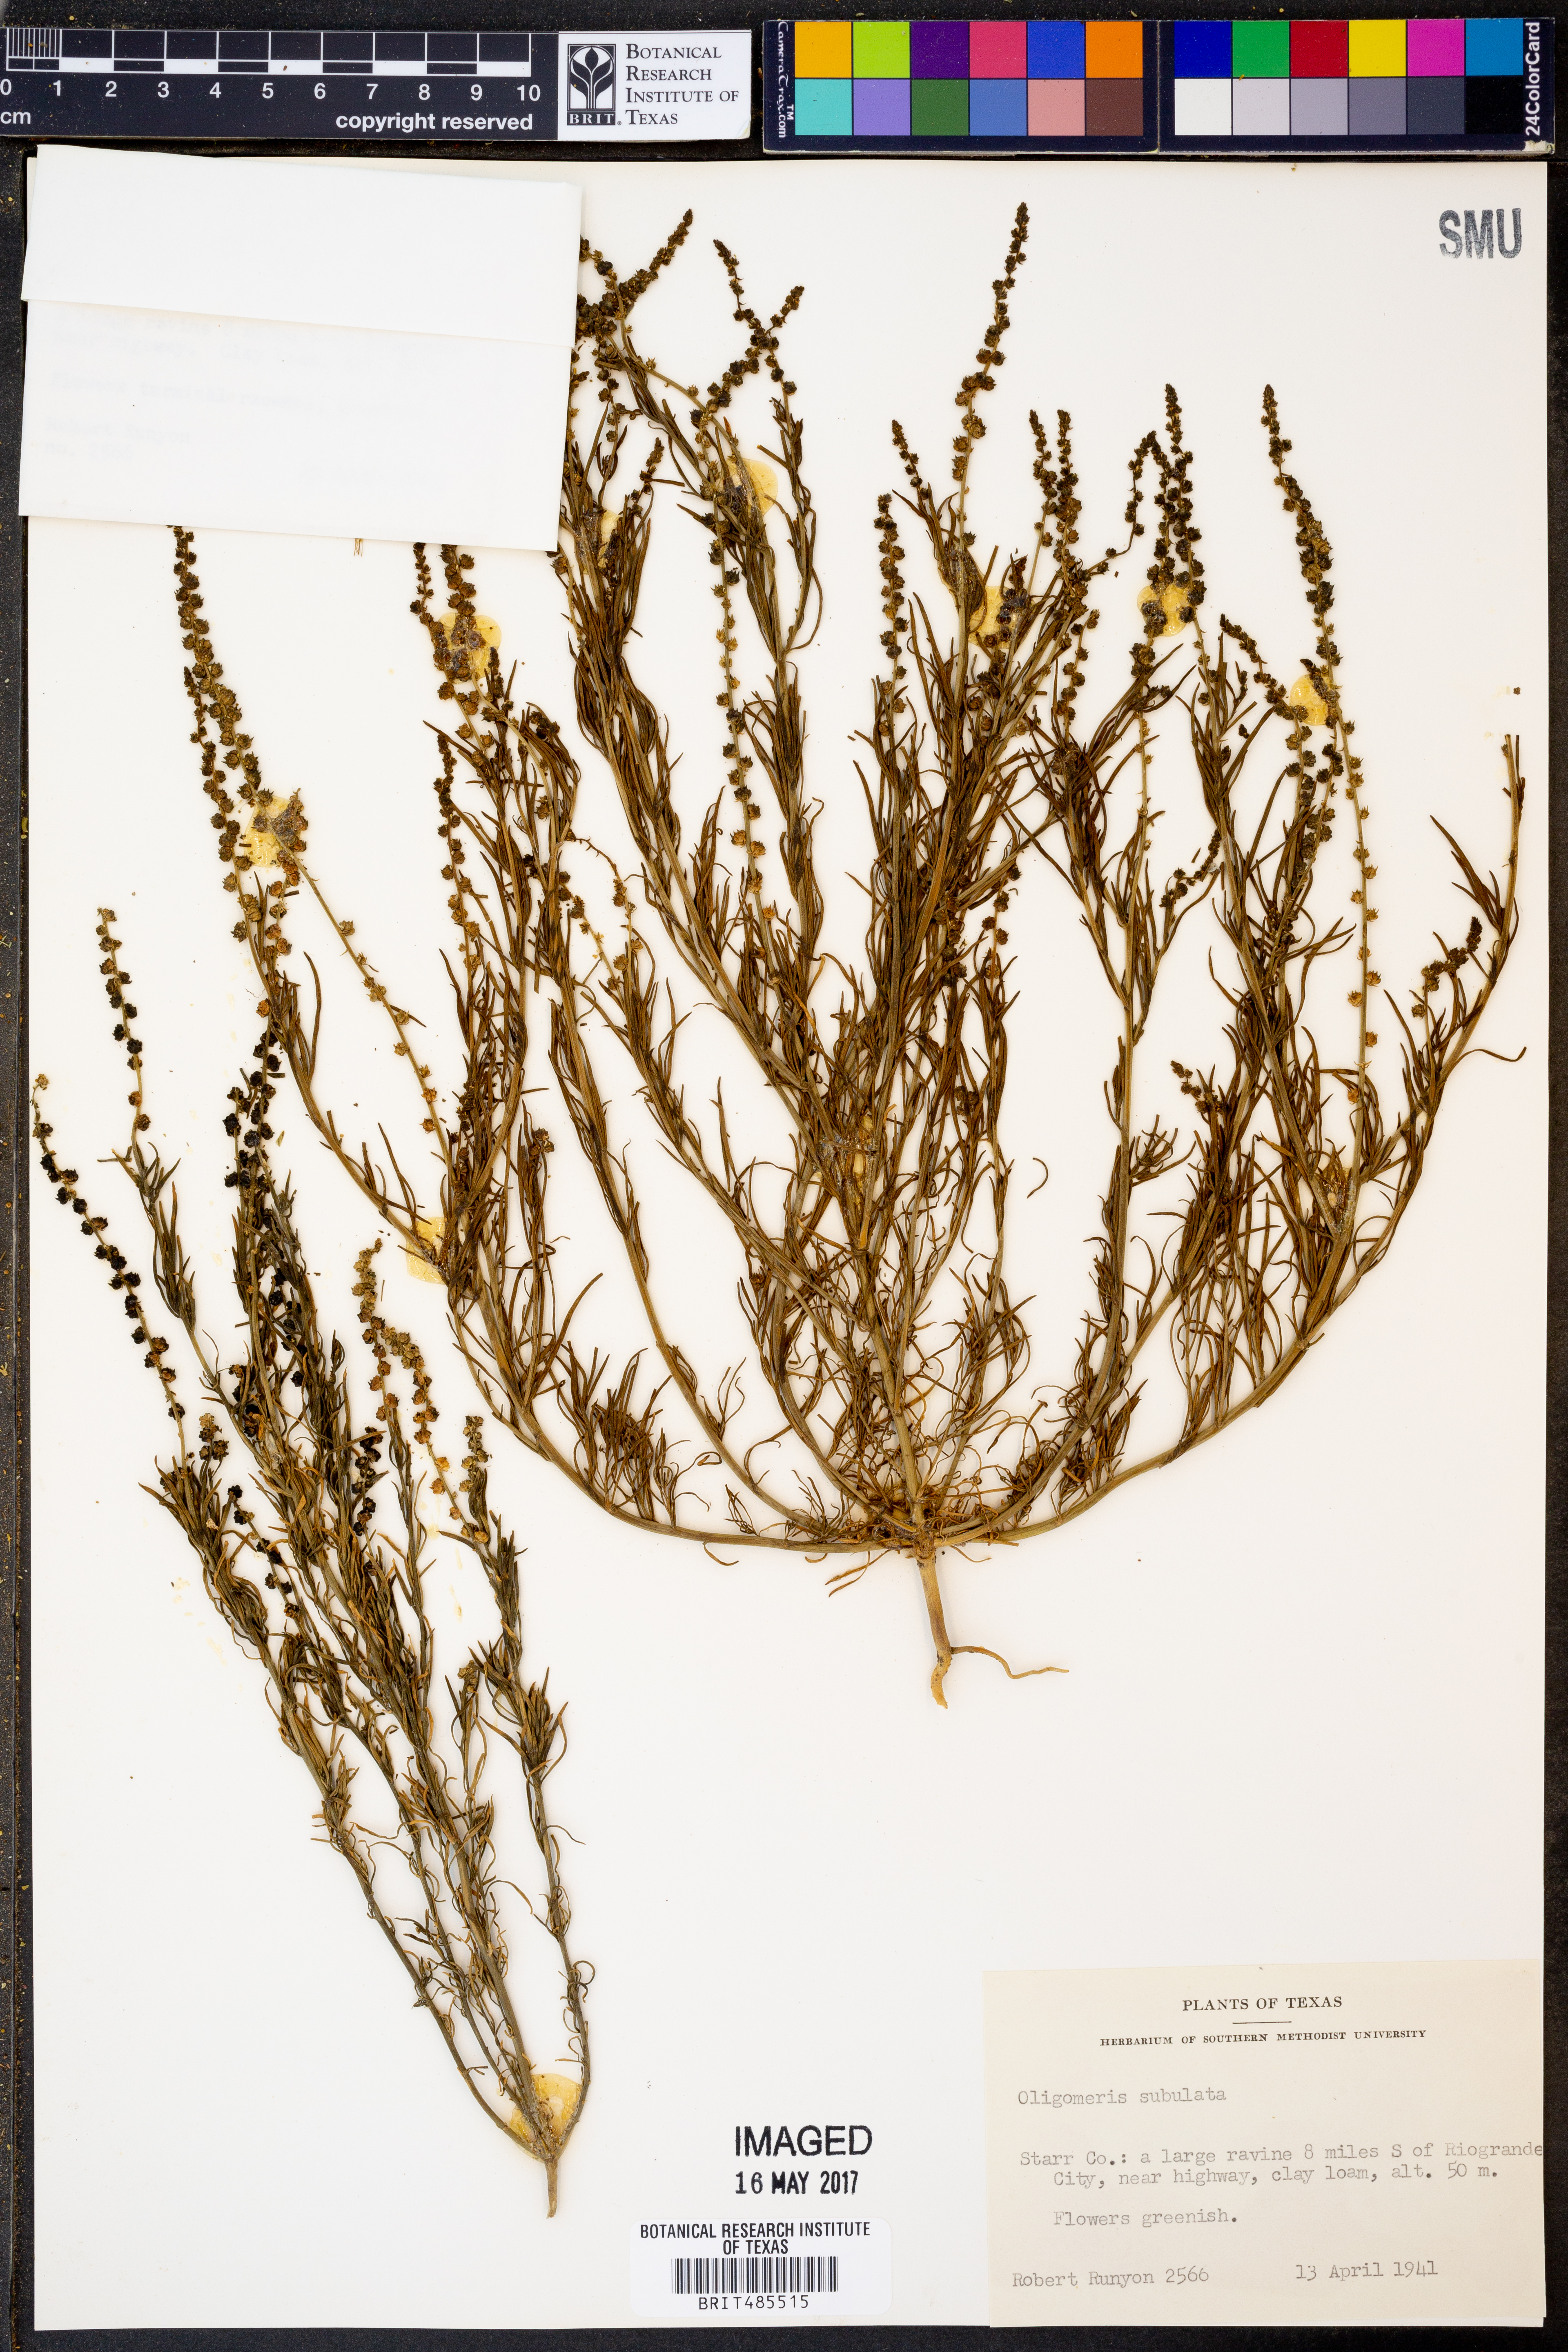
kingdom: Plantae
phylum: Tracheophyta
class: Magnoliopsida
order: Brassicales
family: Resedaceae
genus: Oligomeris
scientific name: Oligomeris linifolia
